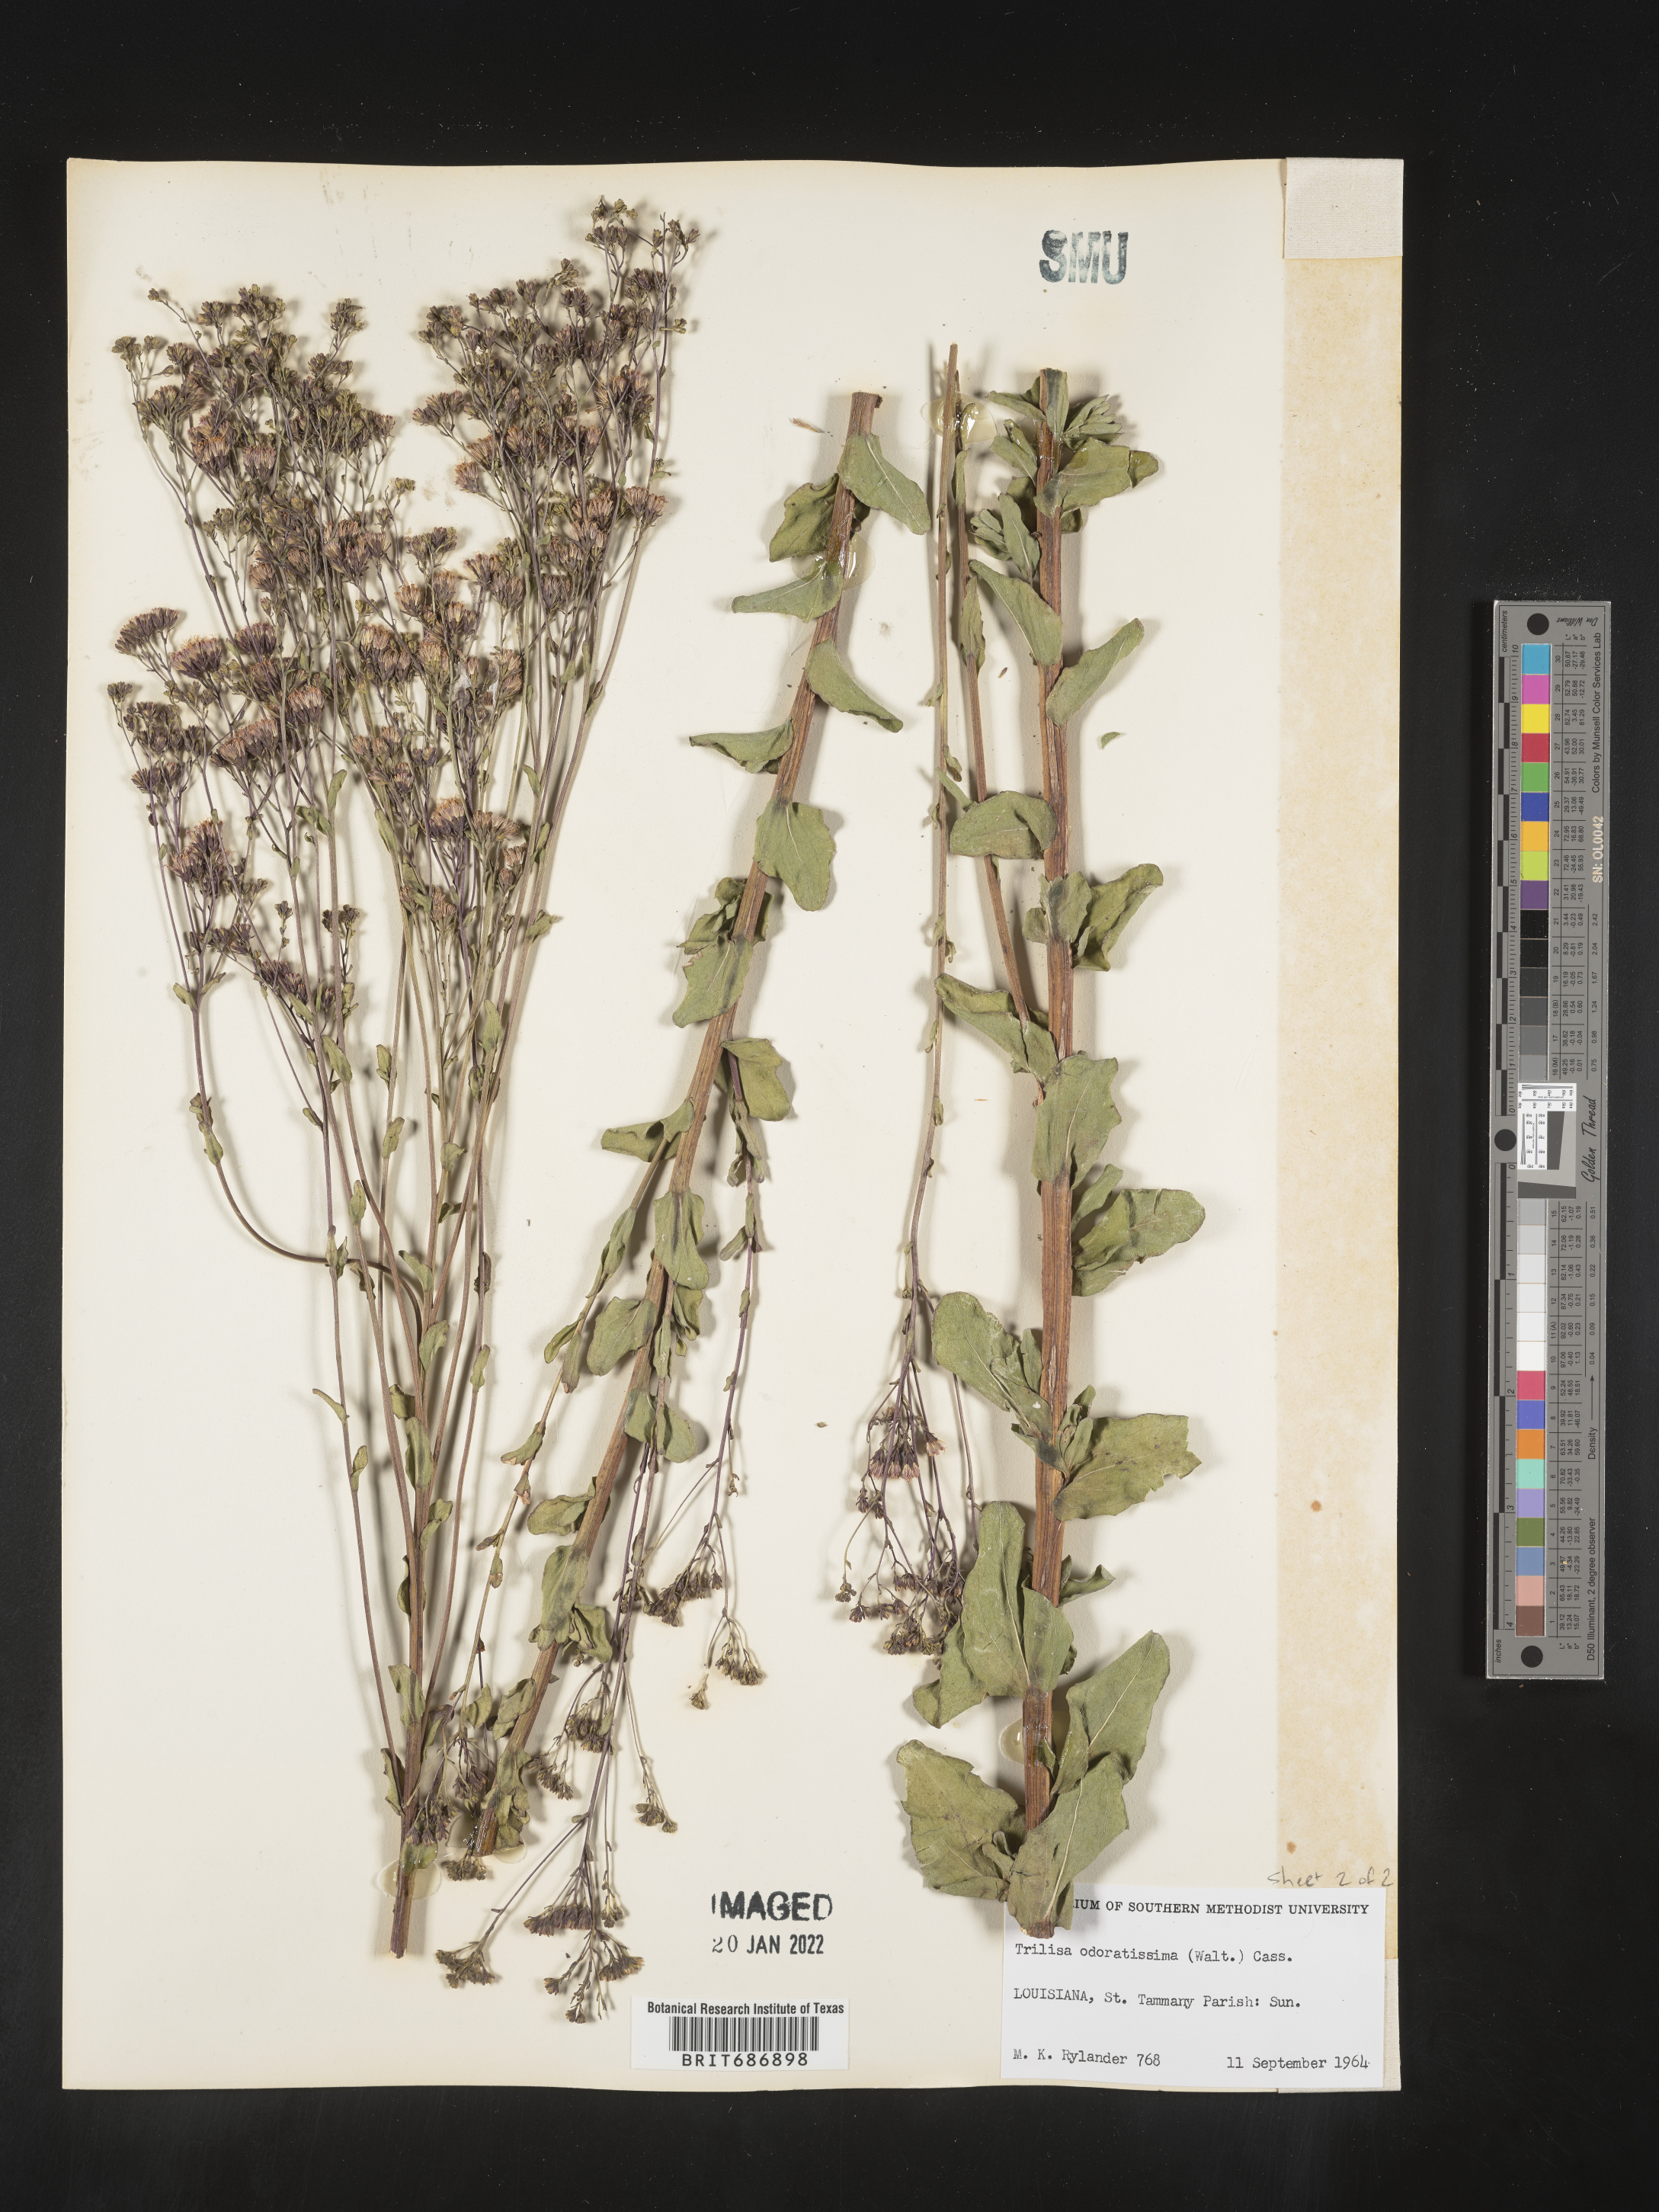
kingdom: Plantae
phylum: Tracheophyta
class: Magnoliopsida
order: Asterales
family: Asteraceae
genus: Carphephorus
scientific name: Carphephorus odoratissimus
